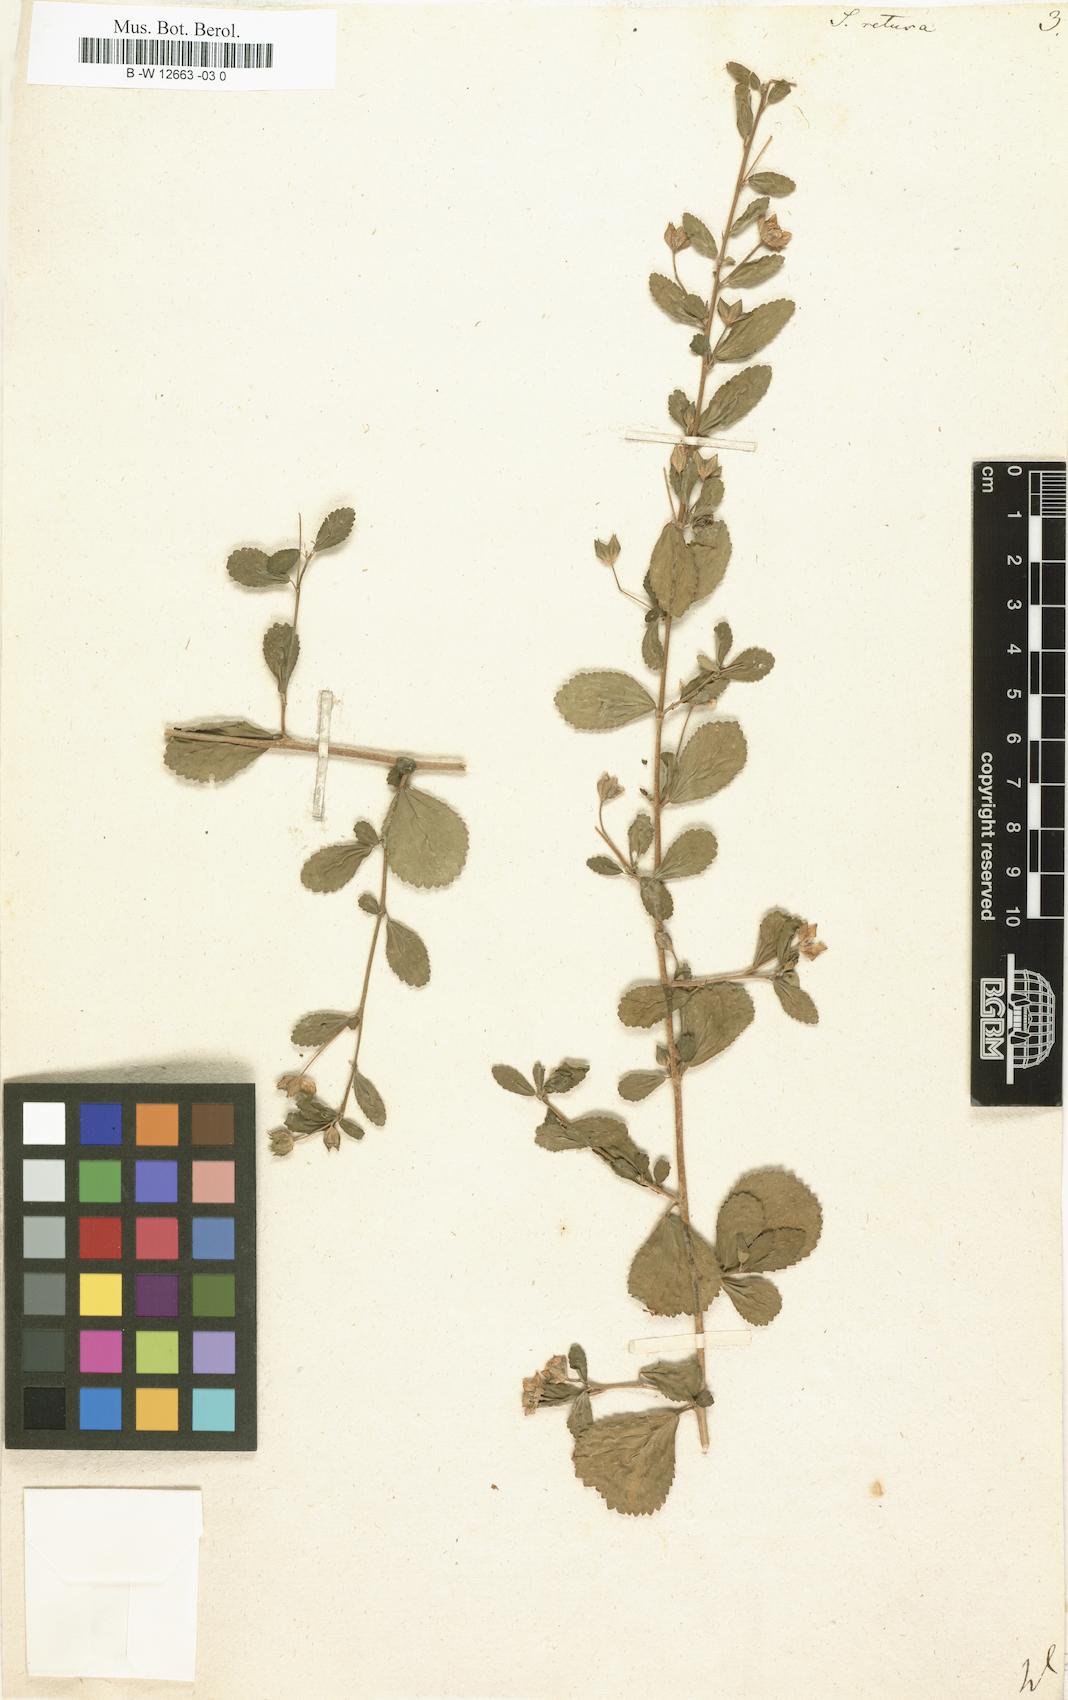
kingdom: Plantae
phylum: Tracheophyta
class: Magnoliopsida
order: Malvales
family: Malvaceae
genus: Sida
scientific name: Sida
